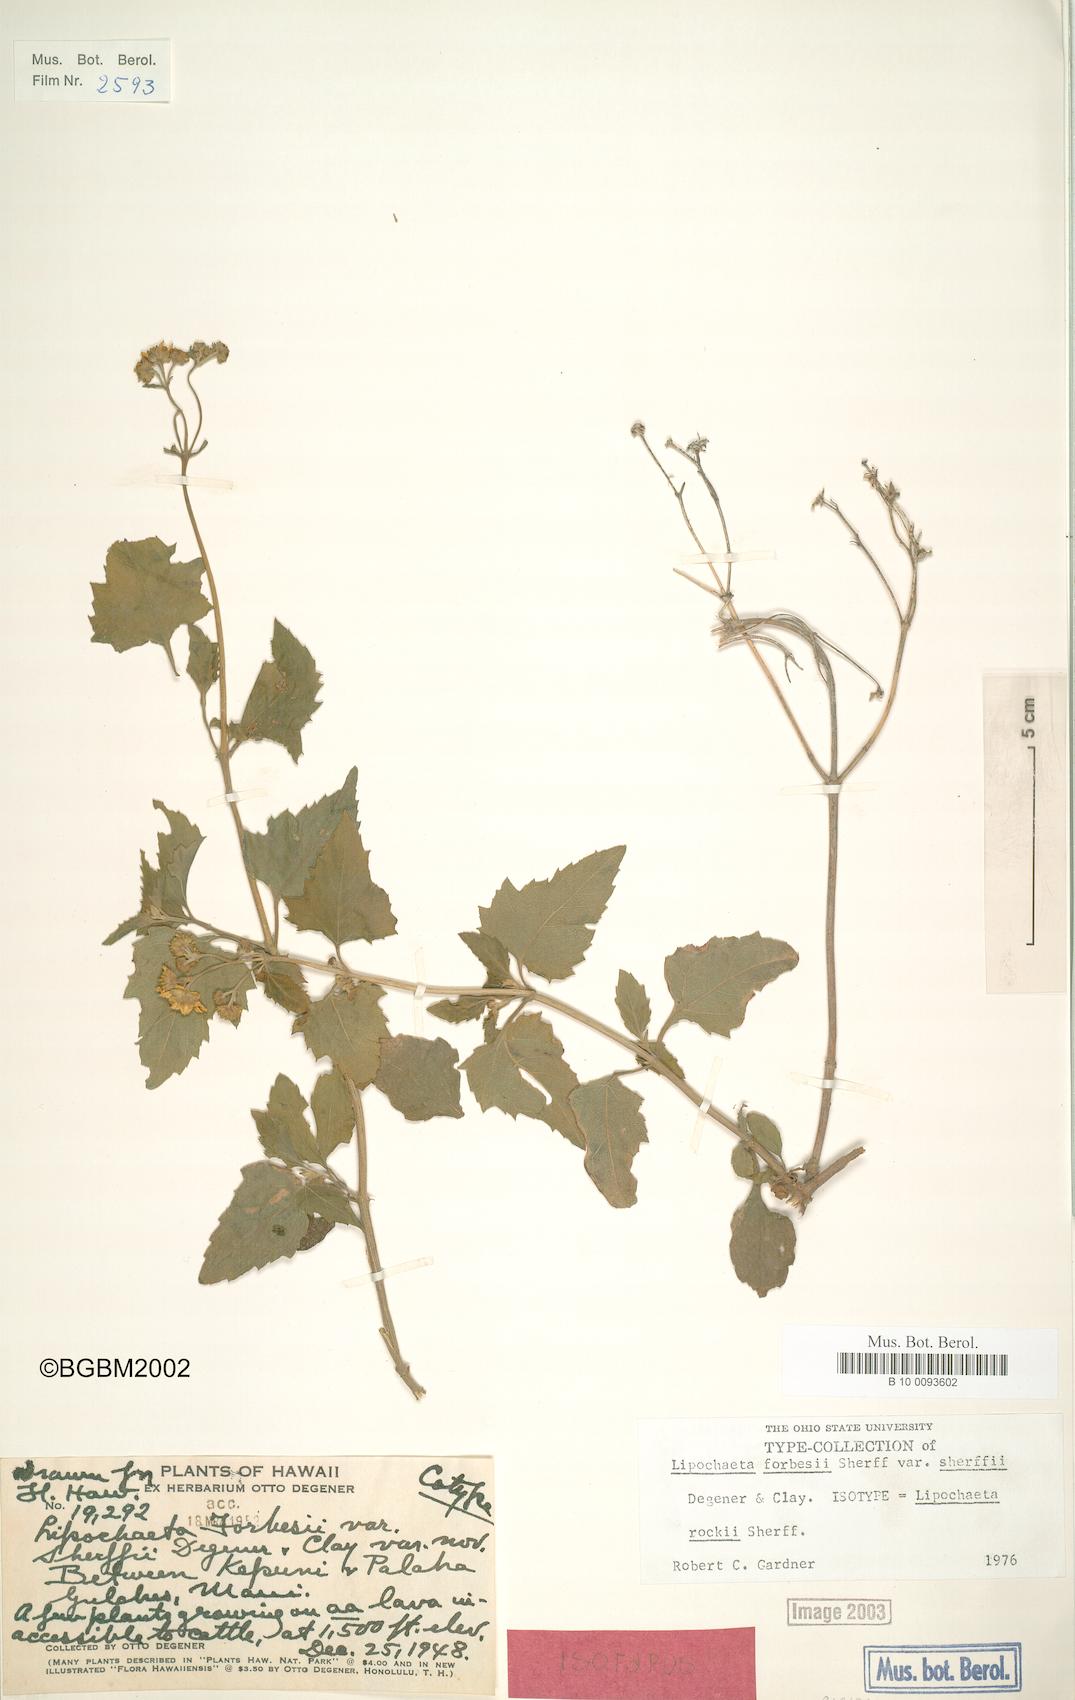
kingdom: Plantae
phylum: Tracheophyta
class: Magnoliopsida
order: Asterales
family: Asteraceae
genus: Lipochaeta
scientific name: Lipochaeta rockii
